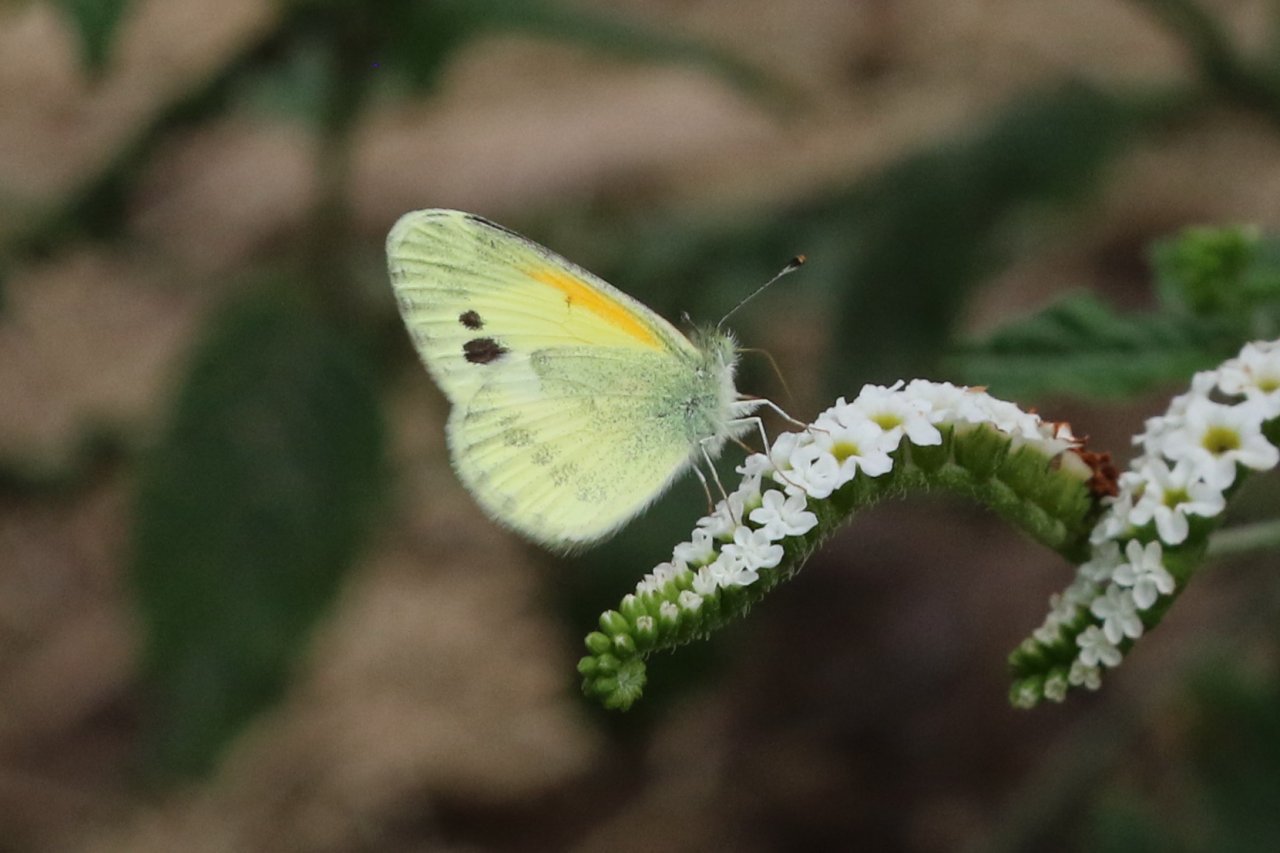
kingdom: Animalia
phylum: Arthropoda
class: Insecta
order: Lepidoptera
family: Pieridae
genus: Nathalis
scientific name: Nathalis iole
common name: Dainty Sulphur
